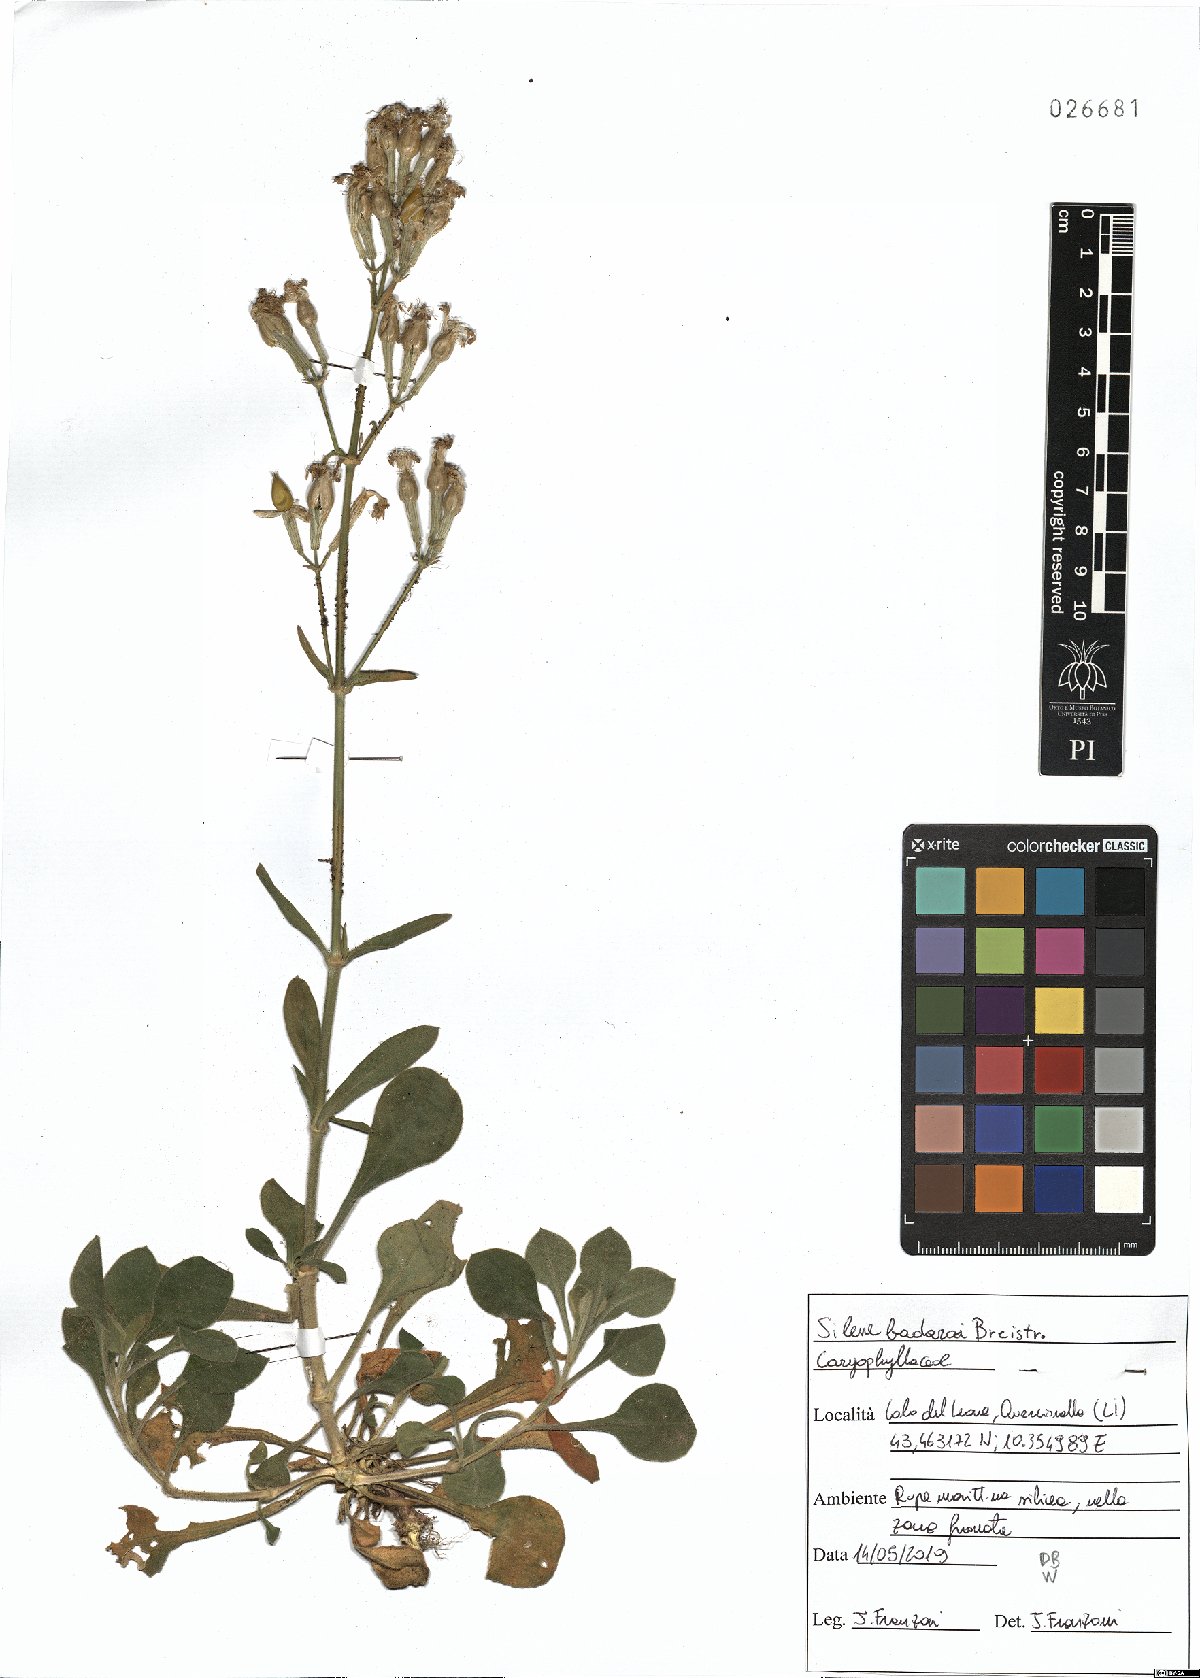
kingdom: Plantae
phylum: Tracheophyta
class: Magnoliopsida
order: Caryophyllales
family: Caryophyllaceae
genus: Silene
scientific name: Silene badaroi
